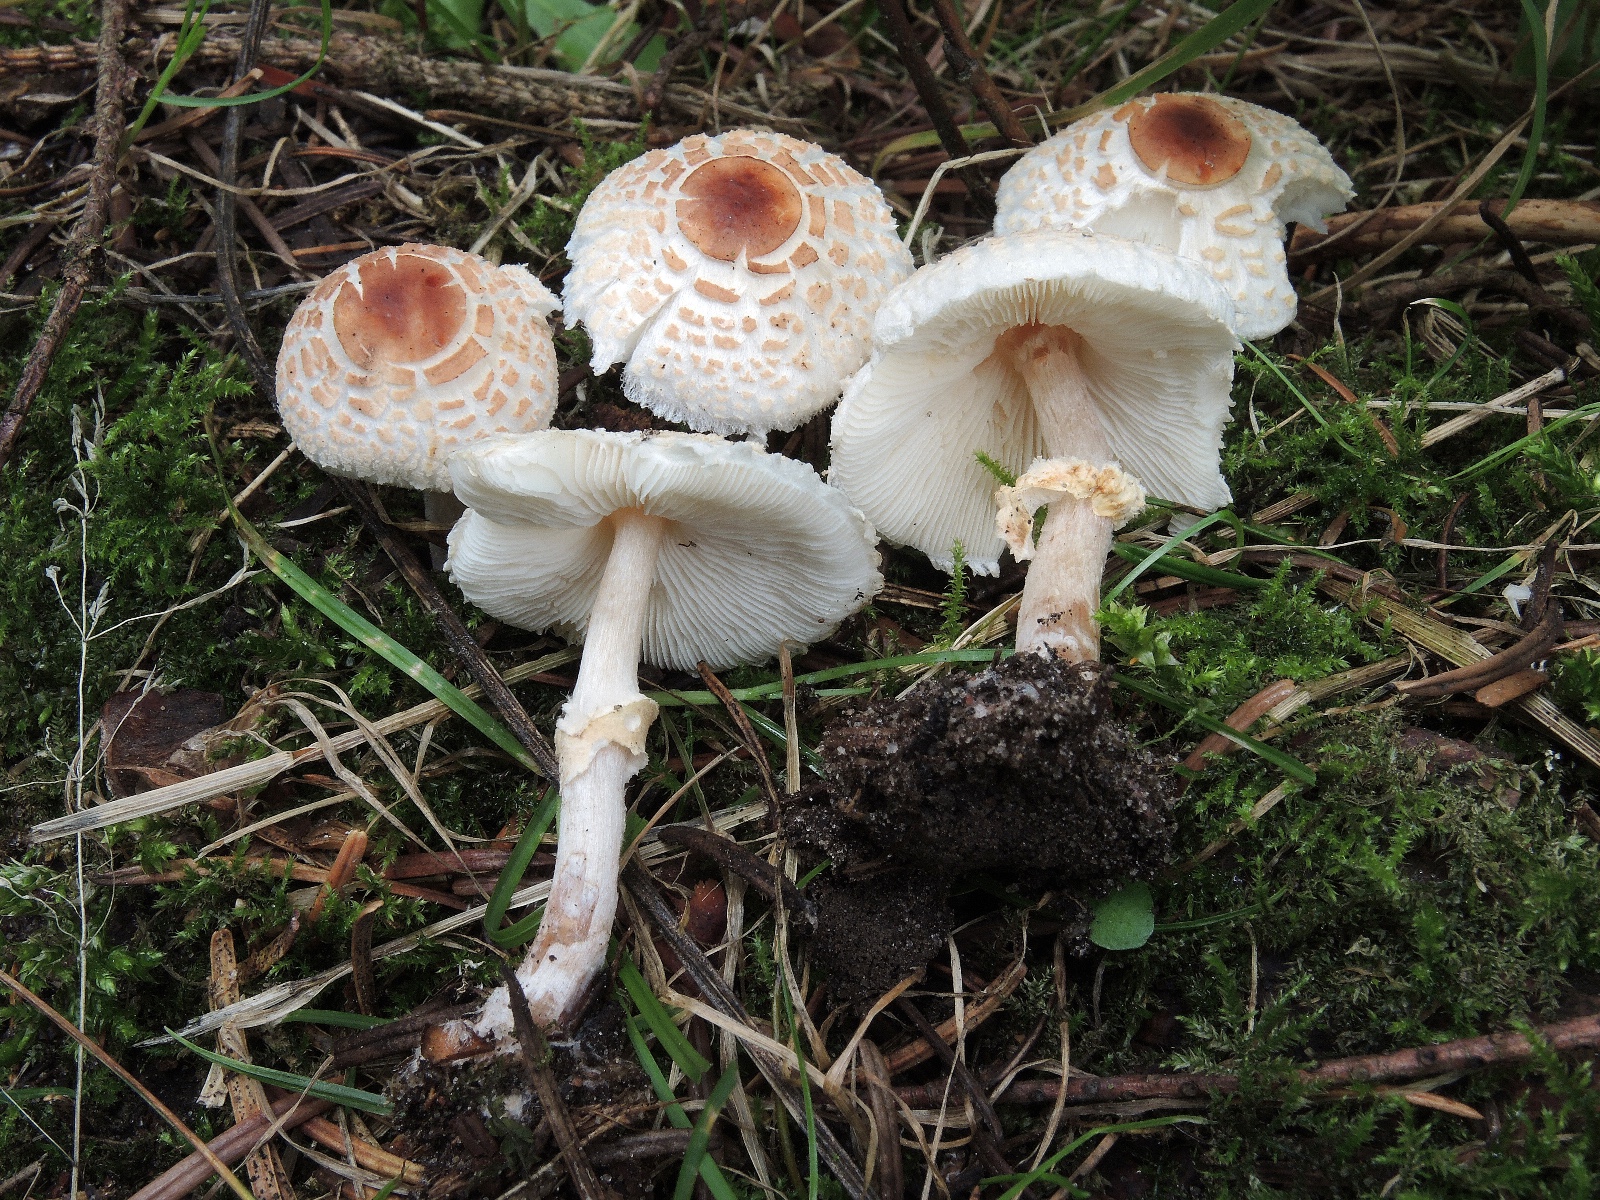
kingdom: Fungi
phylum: Basidiomycota
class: Agaricomycetes
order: Agaricales
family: Agaricaceae
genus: Lepiota
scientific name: Lepiota cristata
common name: stinkende parasolhat
